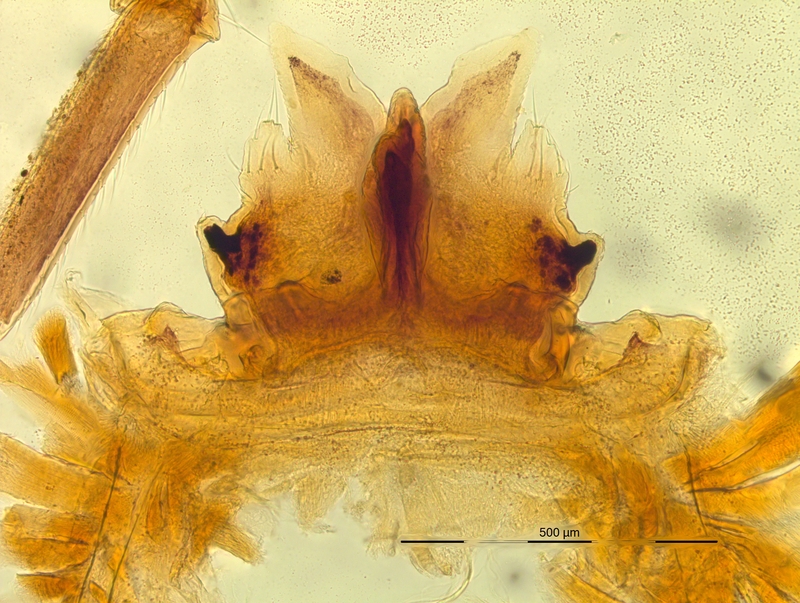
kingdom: Animalia
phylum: Arthropoda
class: Diplopoda
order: Chordeumatida
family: Craspedosomatidae
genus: Bergamosoma
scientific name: Bergamosoma bergomatium
